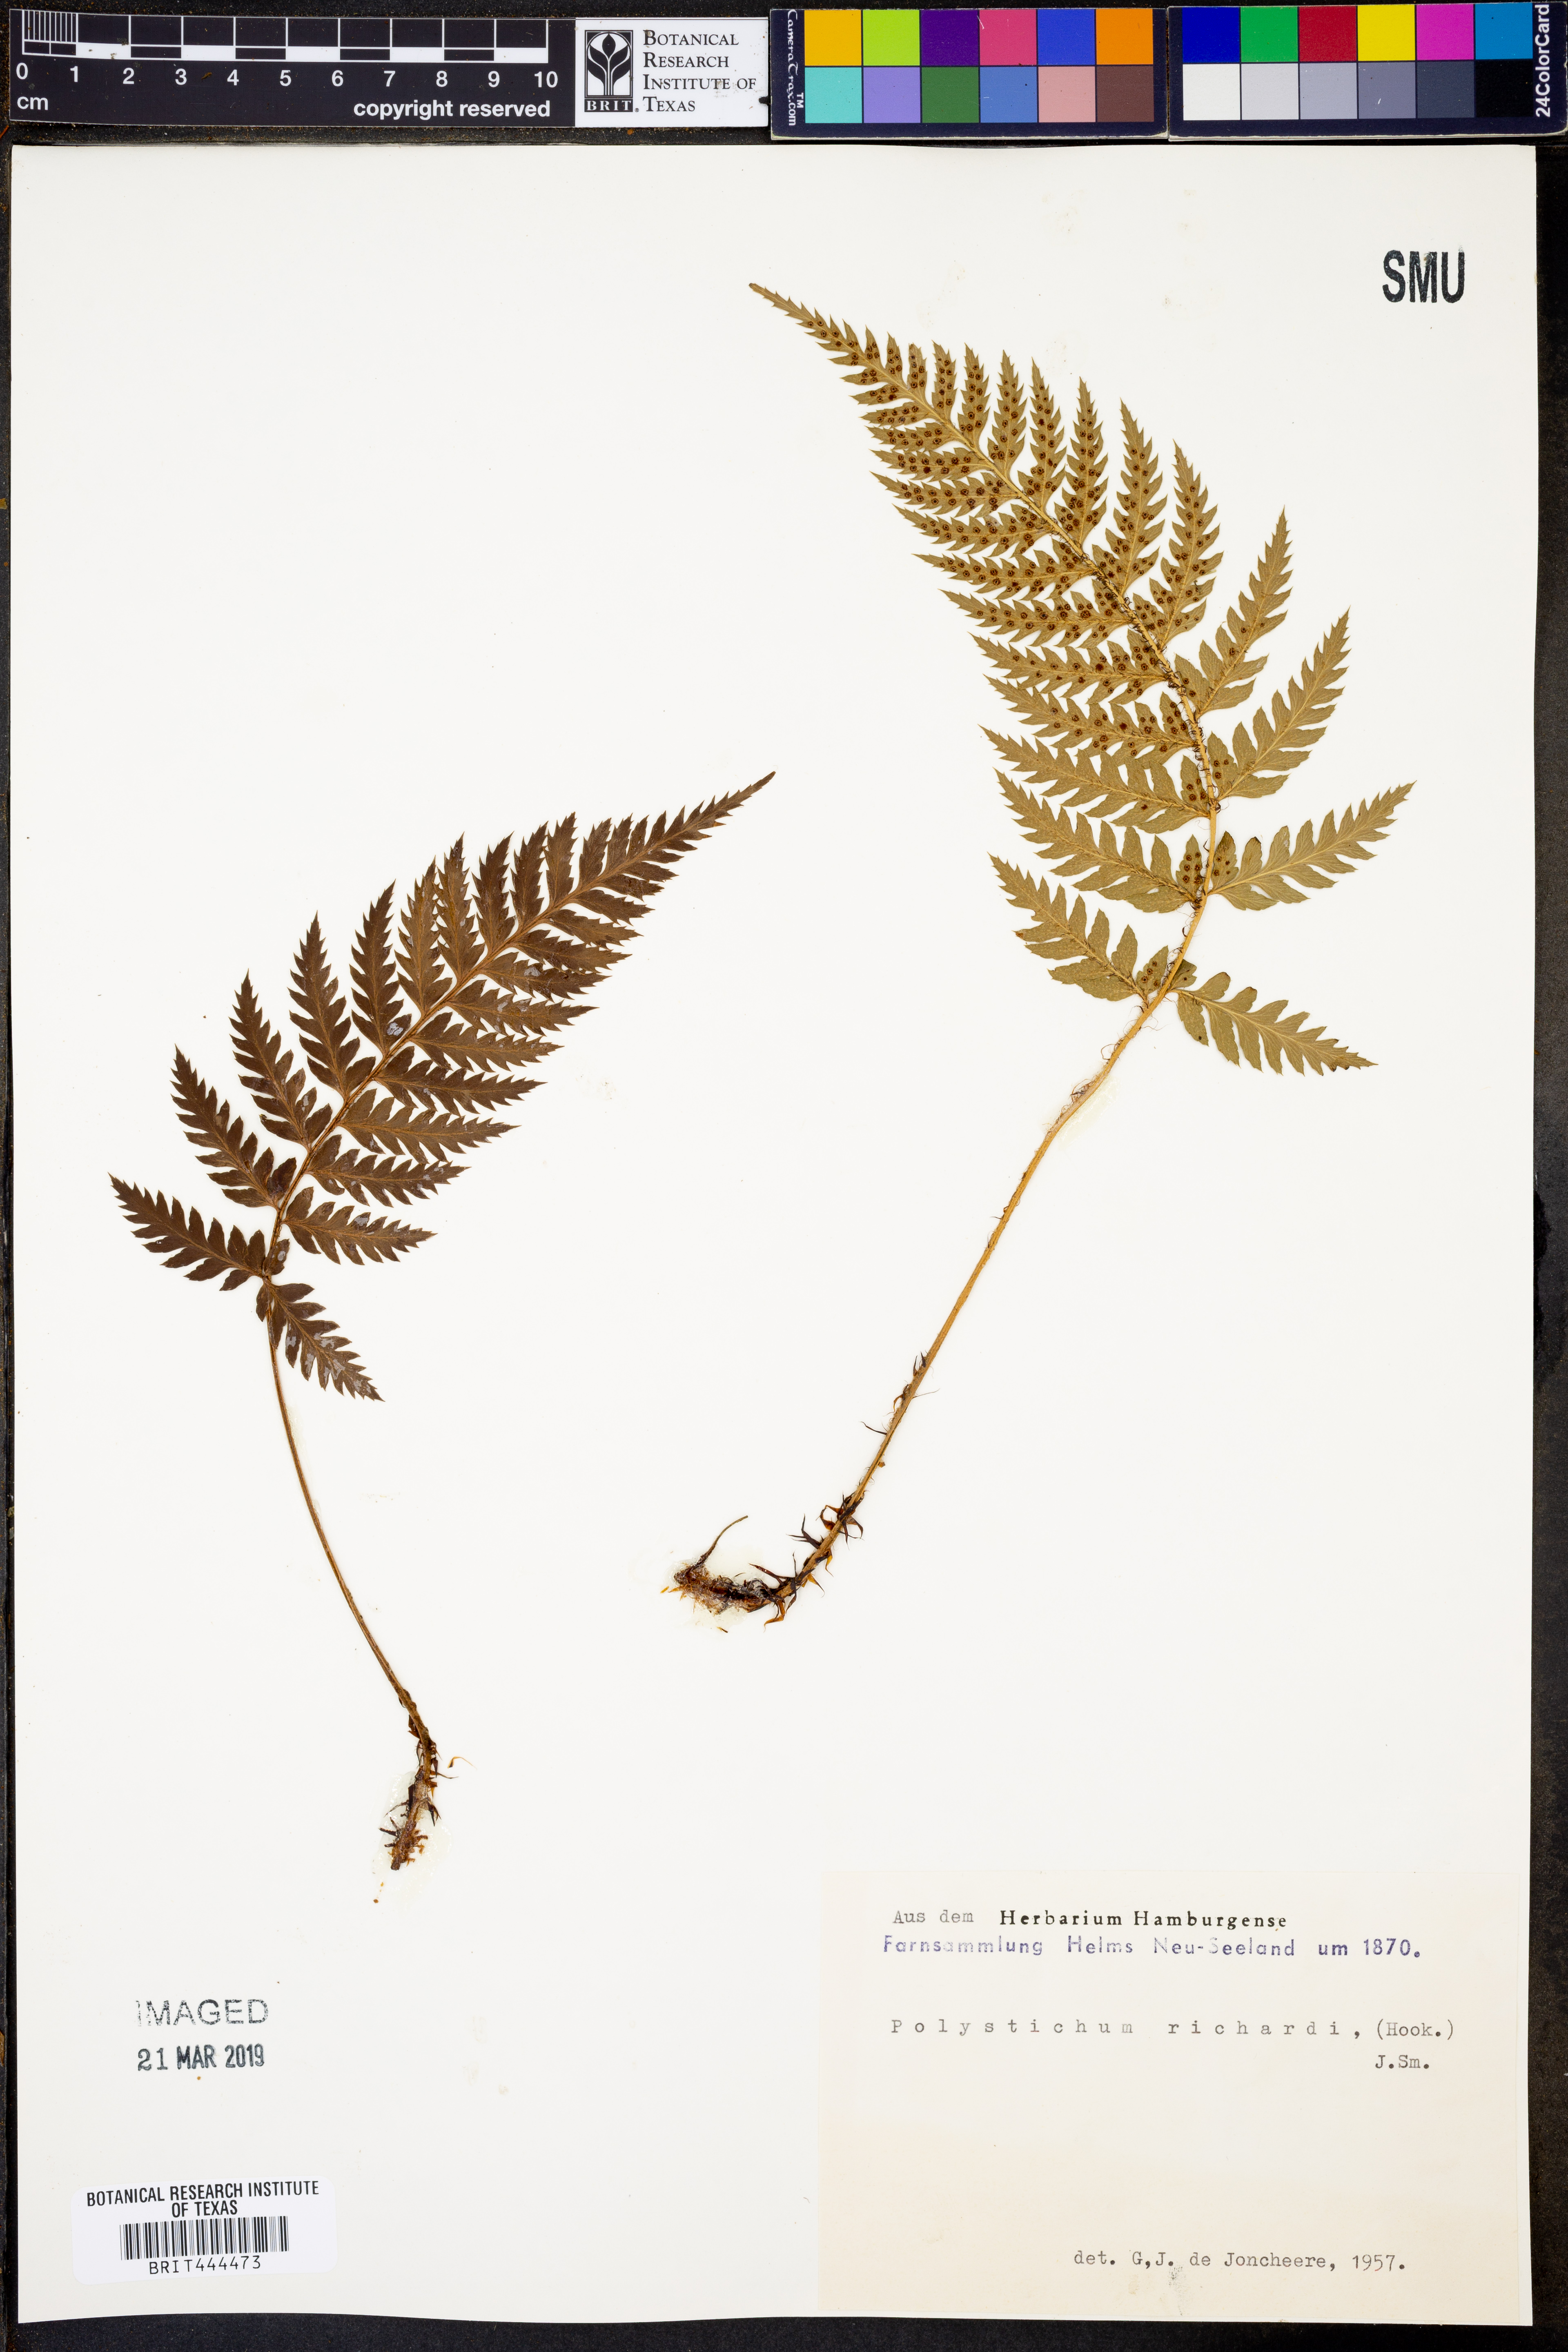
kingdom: Plantae
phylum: Tracheophyta
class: Polypodiopsida
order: Polypodiales
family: Dryopteridaceae
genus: Polystichum
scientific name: Polystichum neozelandicum
